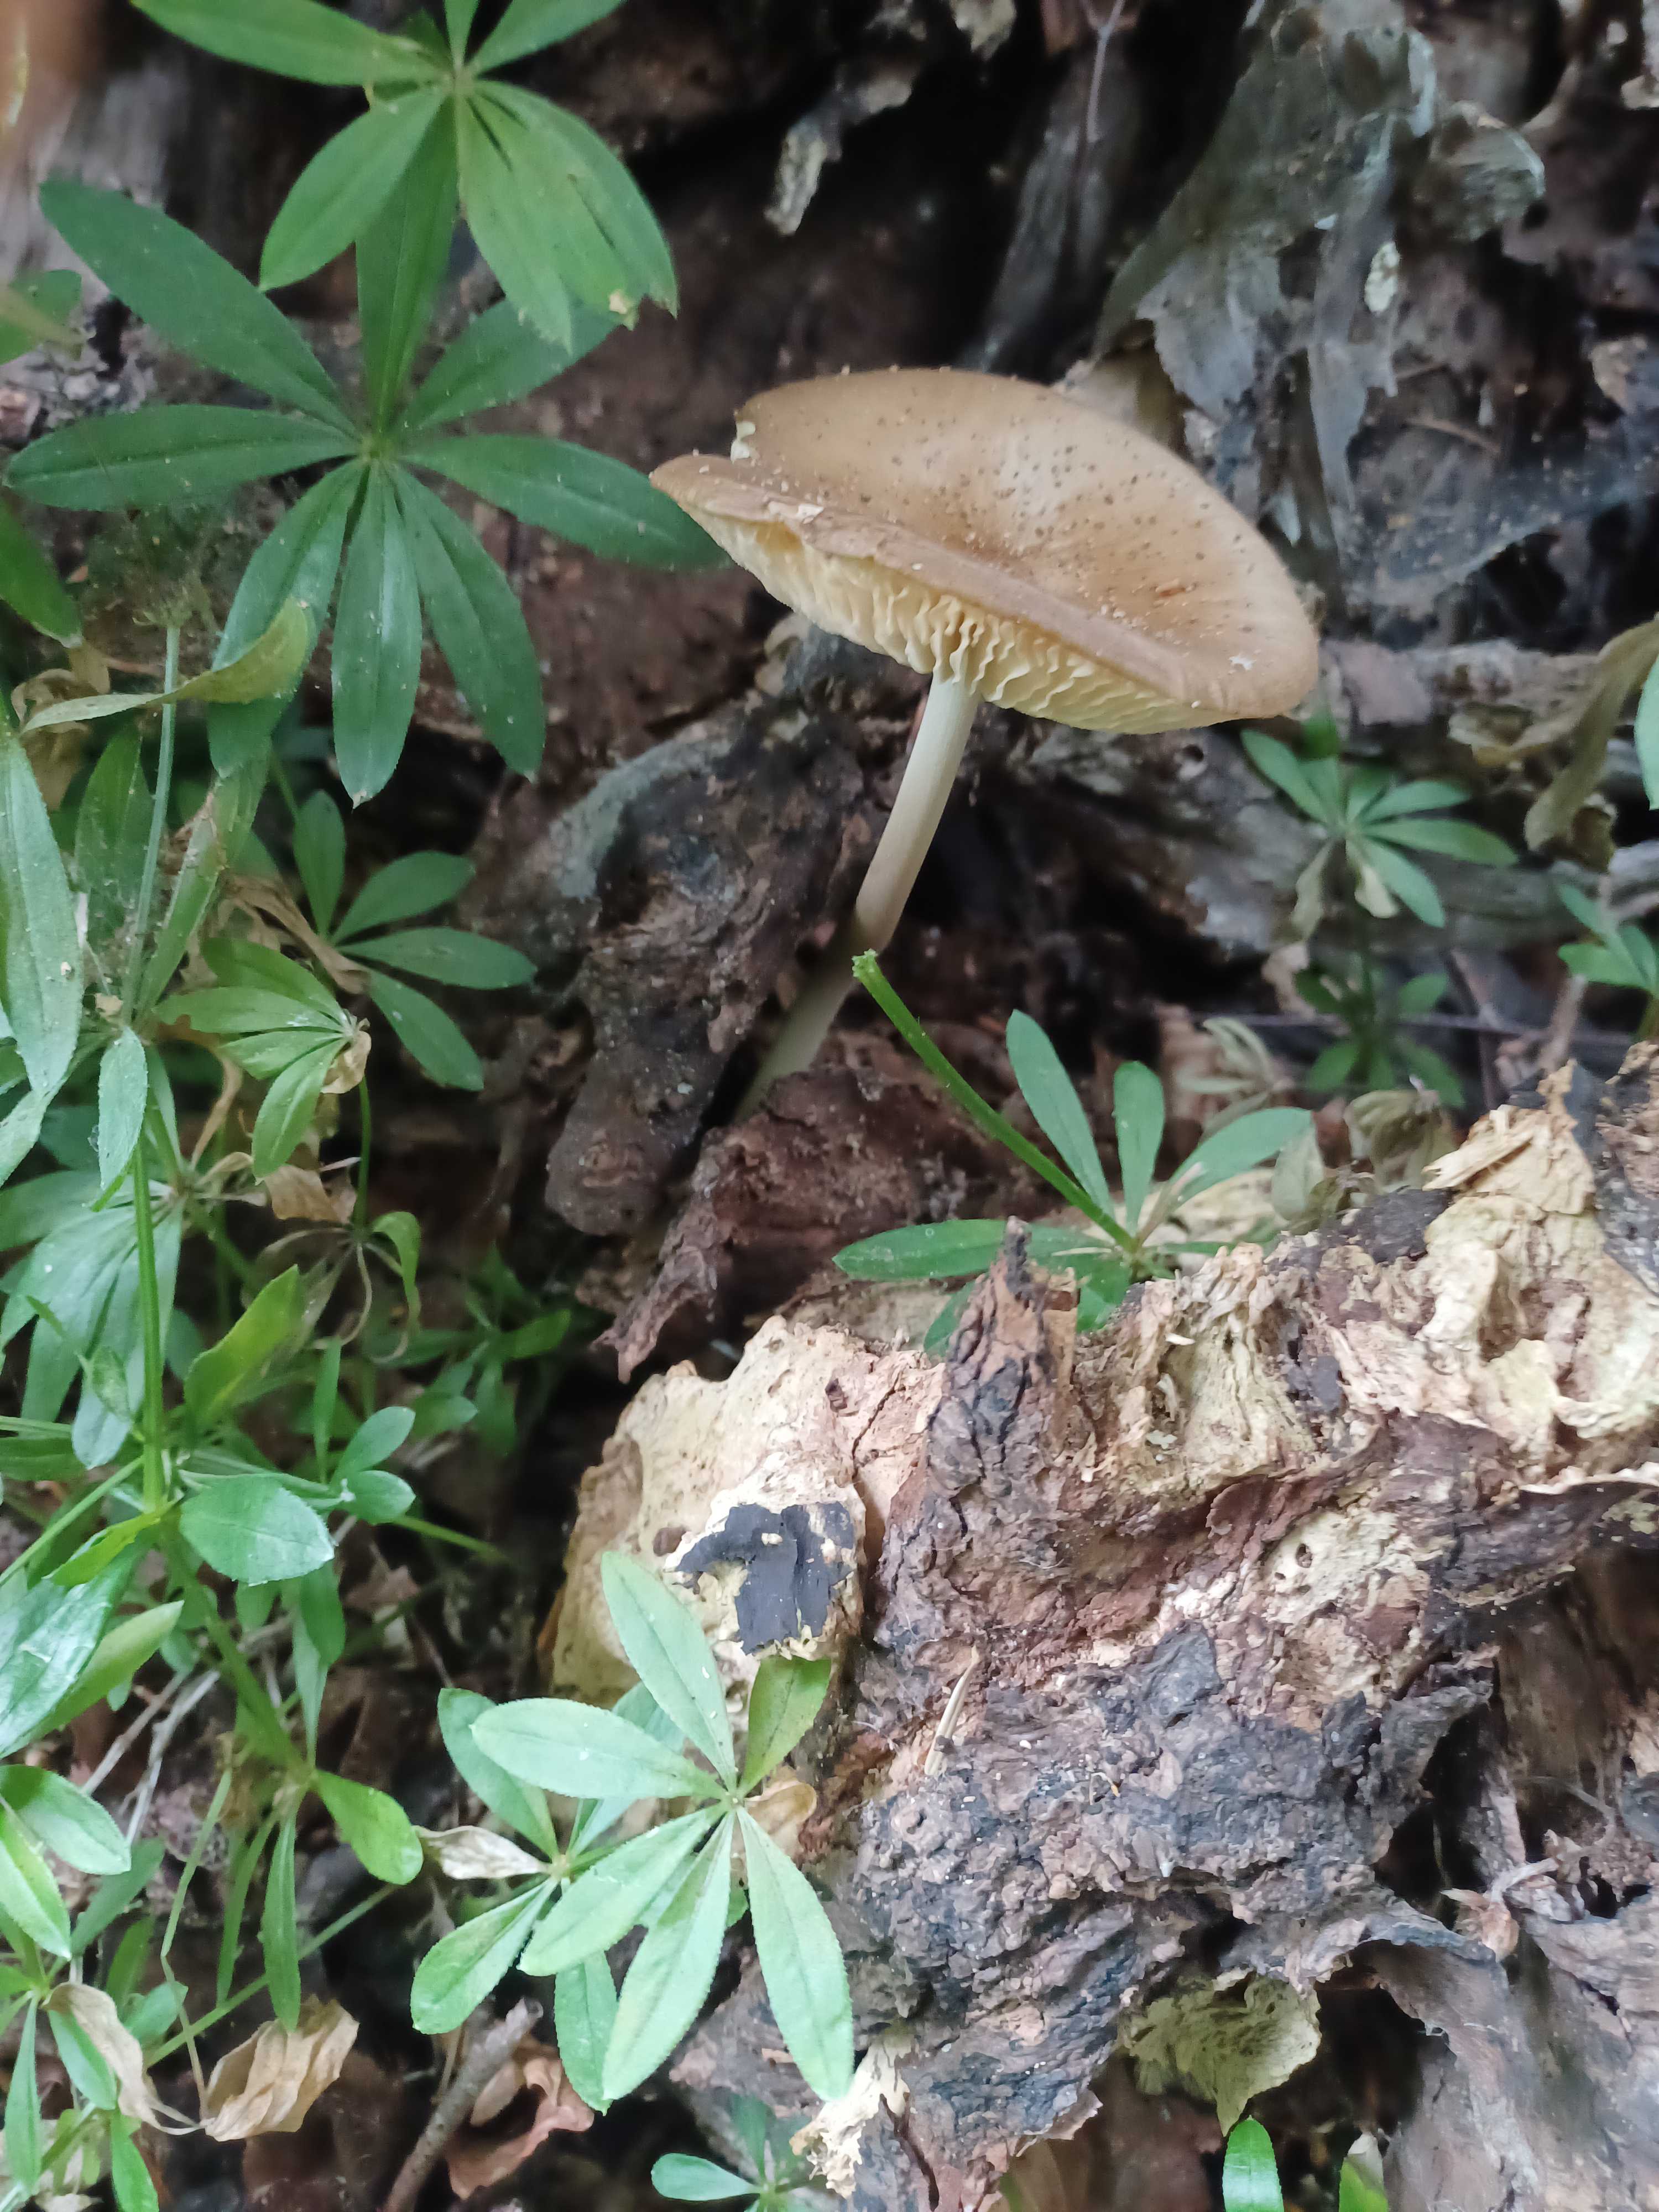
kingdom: Fungi
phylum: Basidiomycota
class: Agaricomycetes
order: Agaricales
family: Physalacriaceae
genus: Hymenopellis
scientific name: Hymenopellis radicata
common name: almindelig pælerodshat
